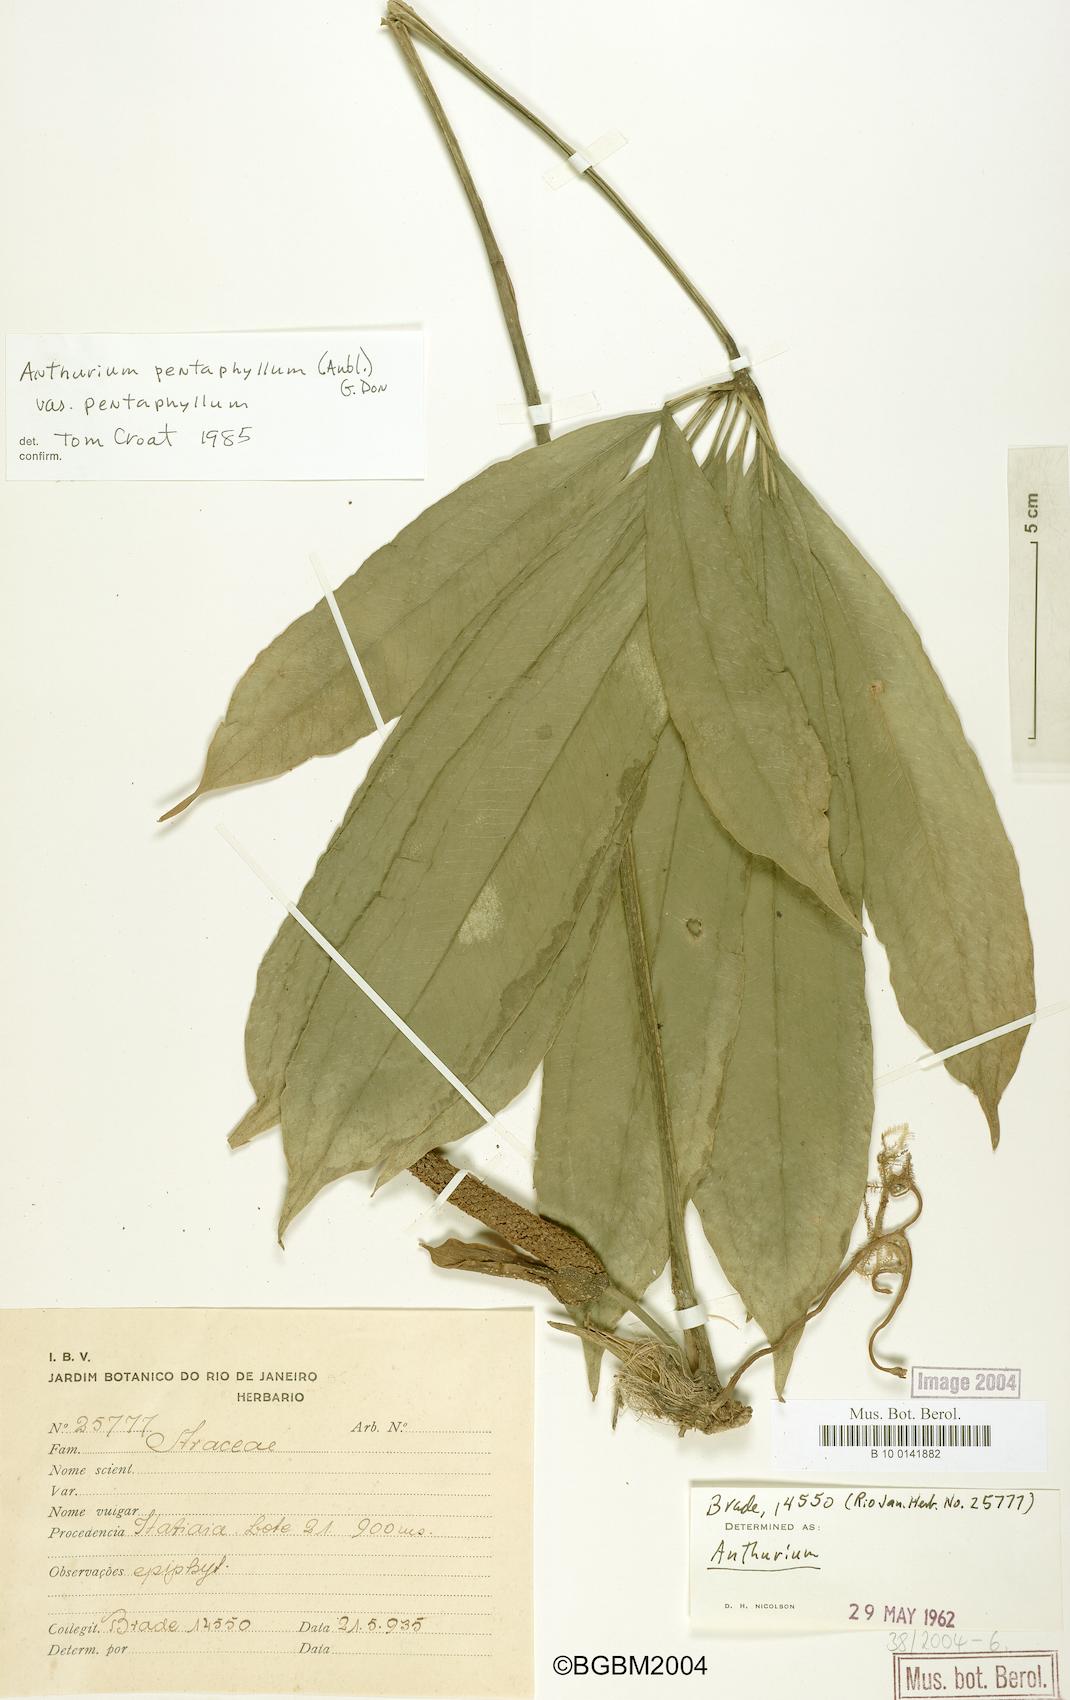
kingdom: Plantae
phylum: Tracheophyta
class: Liliopsida
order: Alismatales
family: Araceae
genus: Anthurium
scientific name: Anthurium pentaphyllum
